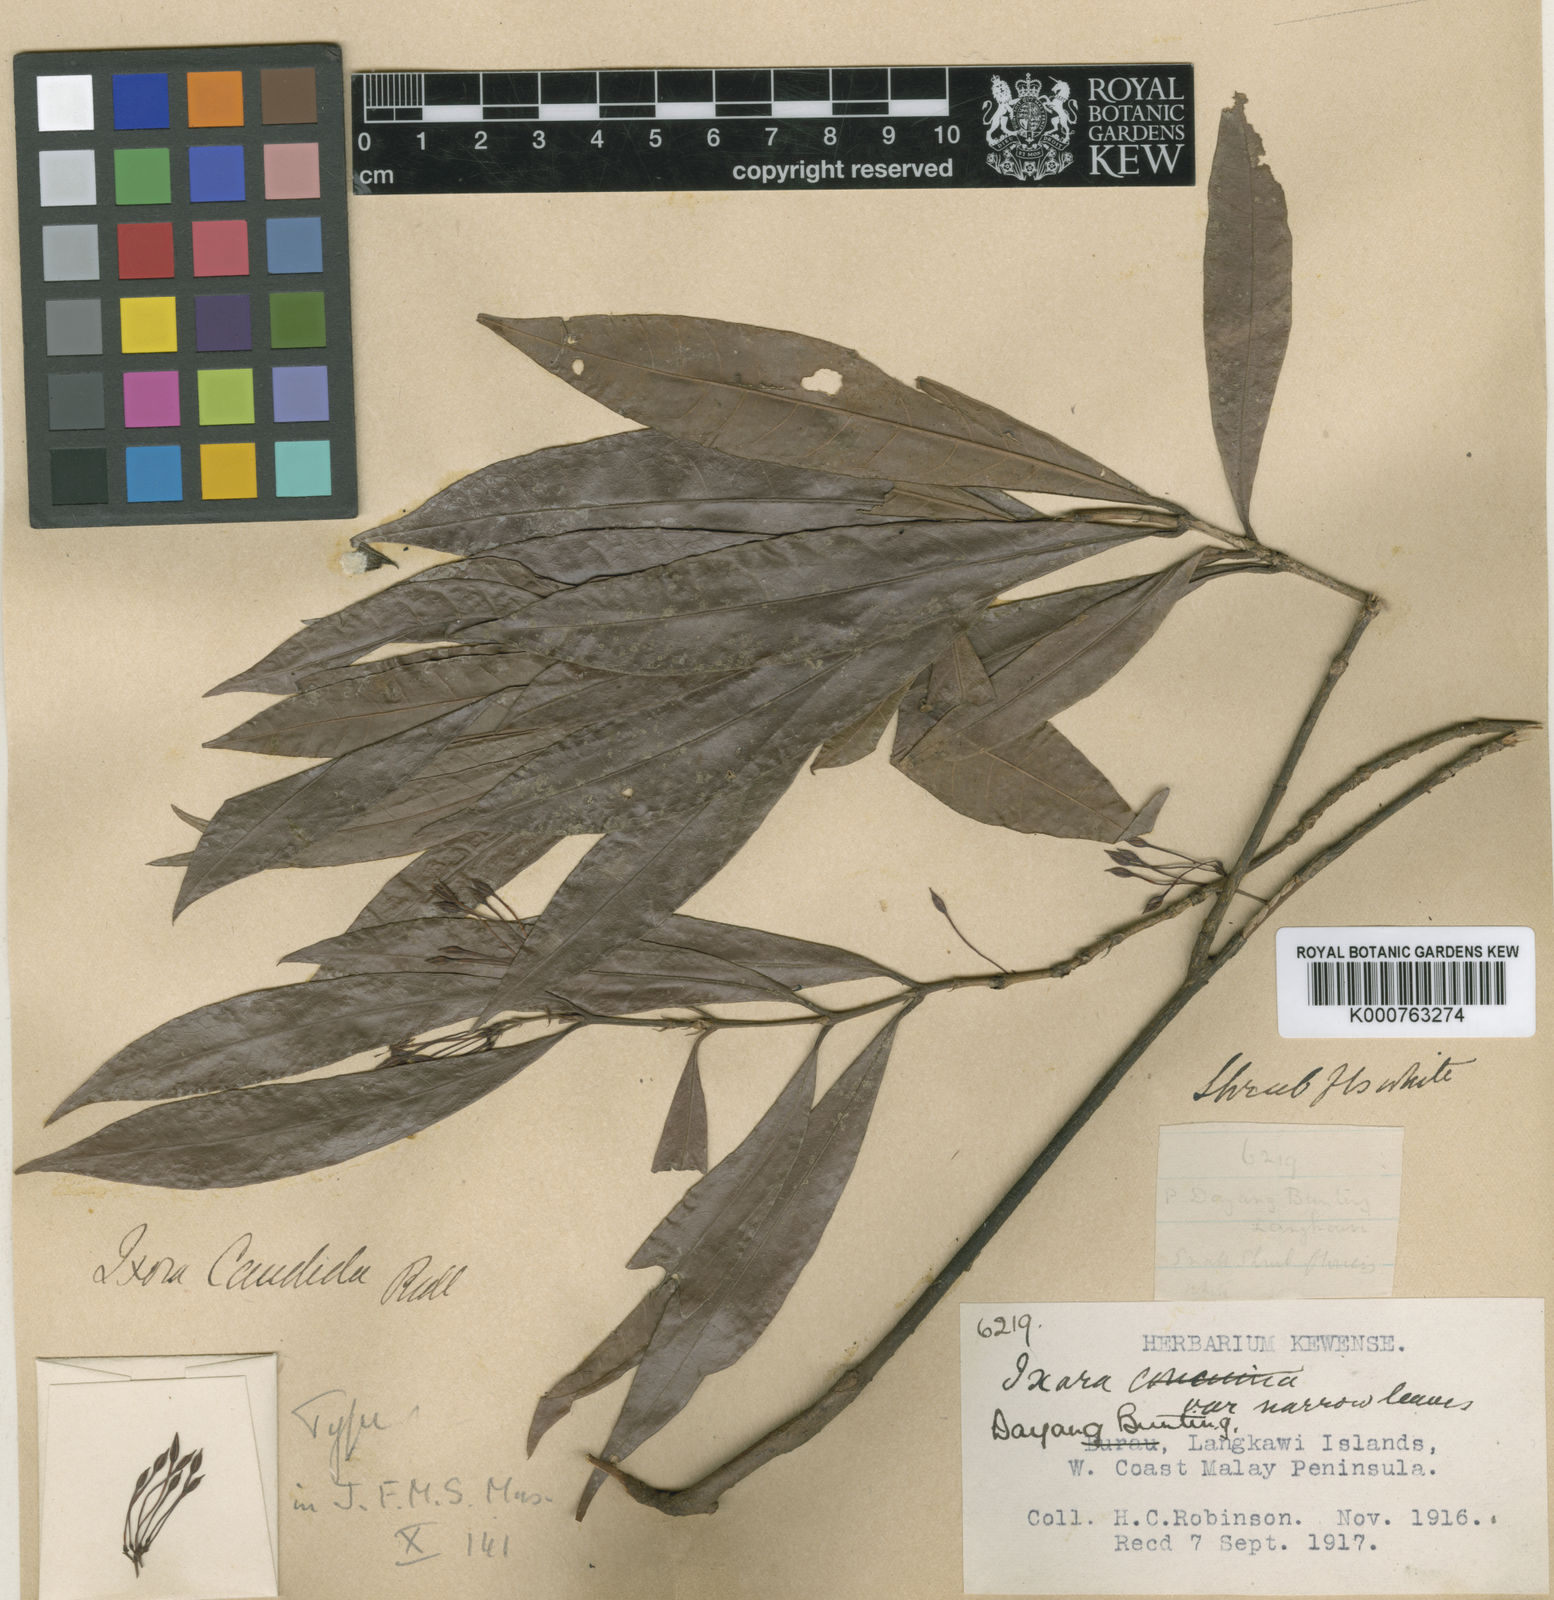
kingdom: Plantae
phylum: Tracheophyta
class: Magnoliopsida
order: Gentianales
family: Rubiaceae
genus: Ixora
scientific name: Ixora grandifolia
